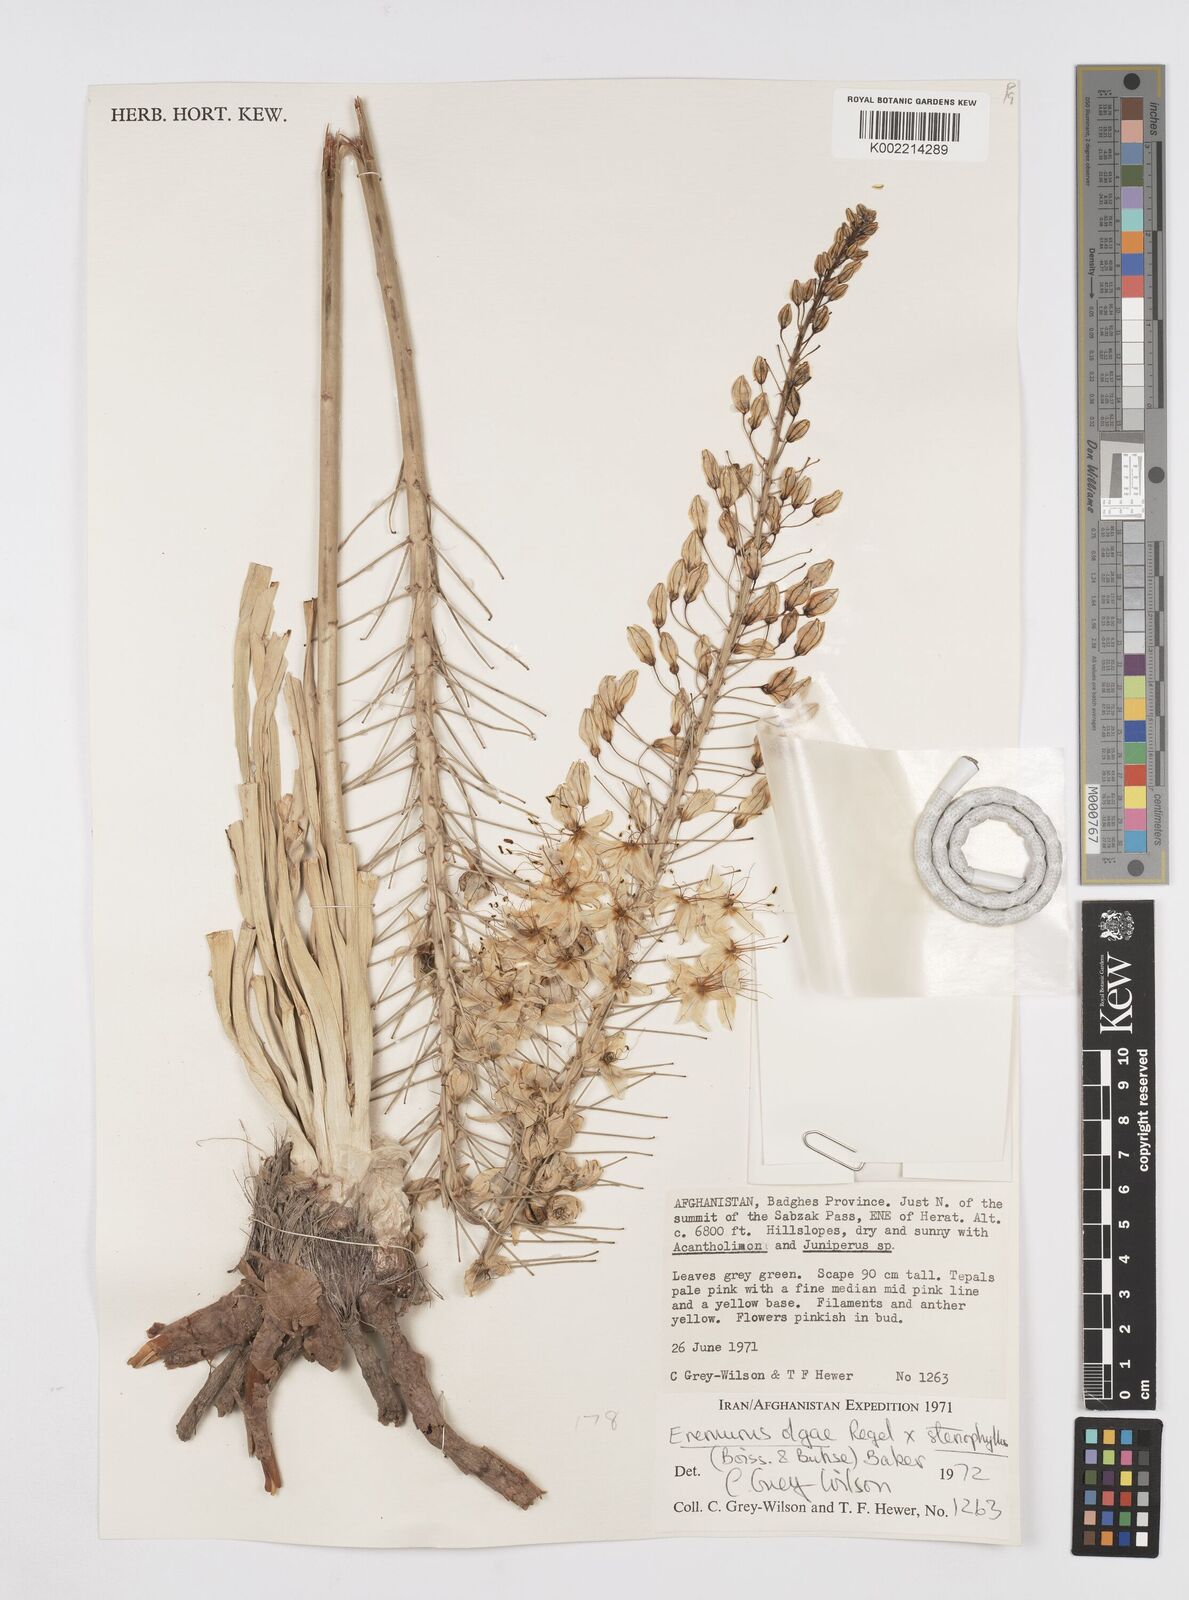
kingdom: Plantae
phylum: Tracheophyta
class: Liliopsida
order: Asparagales
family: Asphodelaceae
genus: Eremurus
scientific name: Eremurus olgae
